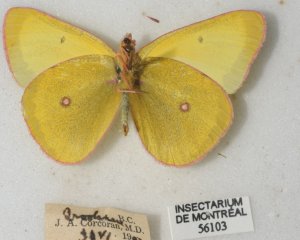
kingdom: Animalia
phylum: Arthropoda
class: Insecta
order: Lepidoptera
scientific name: Lepidoptera
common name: Butterflies
